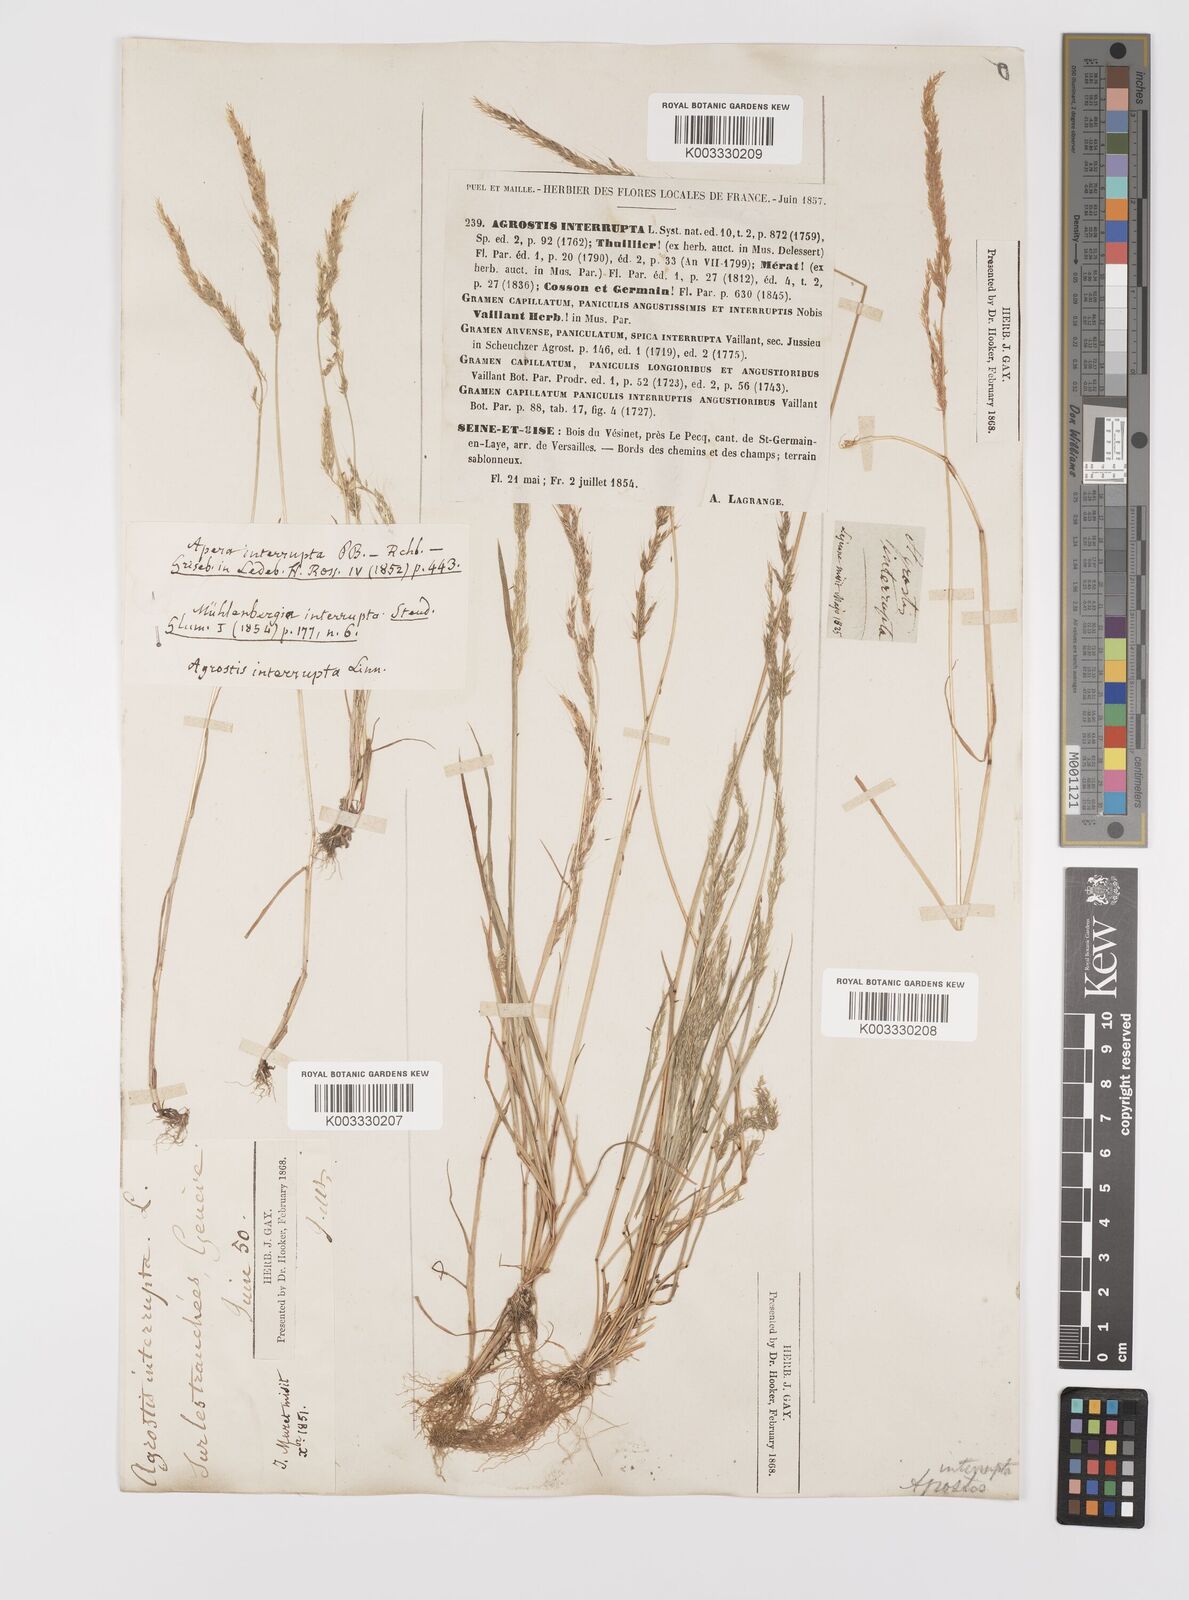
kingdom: Plantae
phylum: Tracheophyta
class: Liliopsida
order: Poales
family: Poaceae
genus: Apera
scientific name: Apera interrupta
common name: Dense silky-bent
